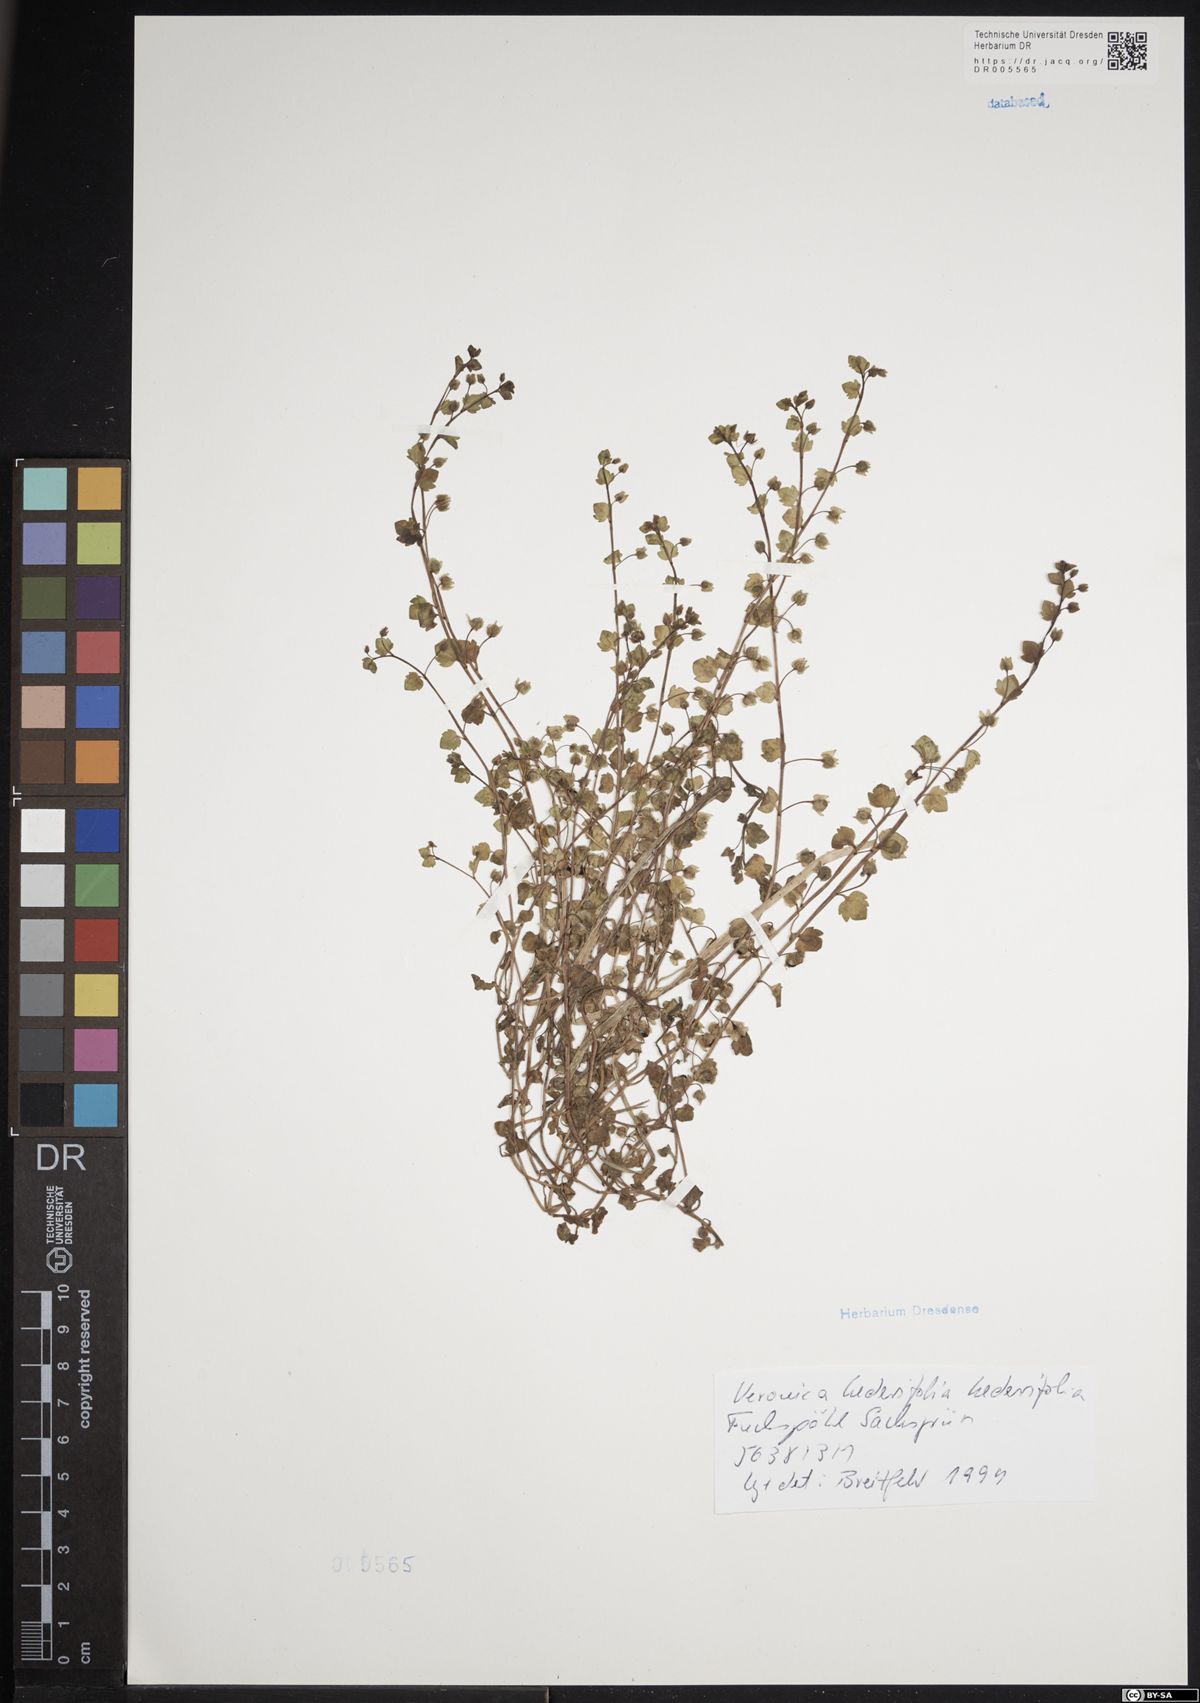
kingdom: Plantae
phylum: Tracheophyta
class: Magnoliopsida
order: Lamiales
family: Plantaginaceae
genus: Veronica
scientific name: Veronica hederifolia
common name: Ivy-leaved speedwell
